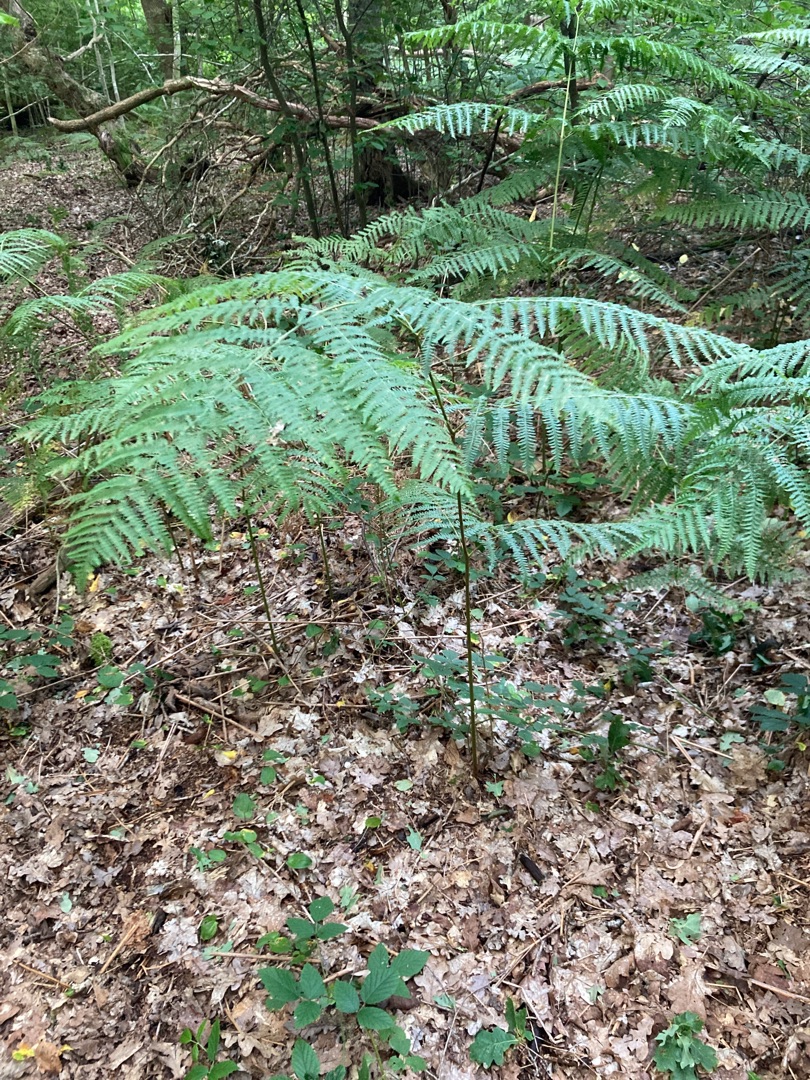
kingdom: Plantae
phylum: Tracheophyta
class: Polypodiopsida
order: Polypodiales
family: Dennstaedtiaceae
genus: Pteridium
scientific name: Pteridium aquilinum
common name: Ørnebregne
